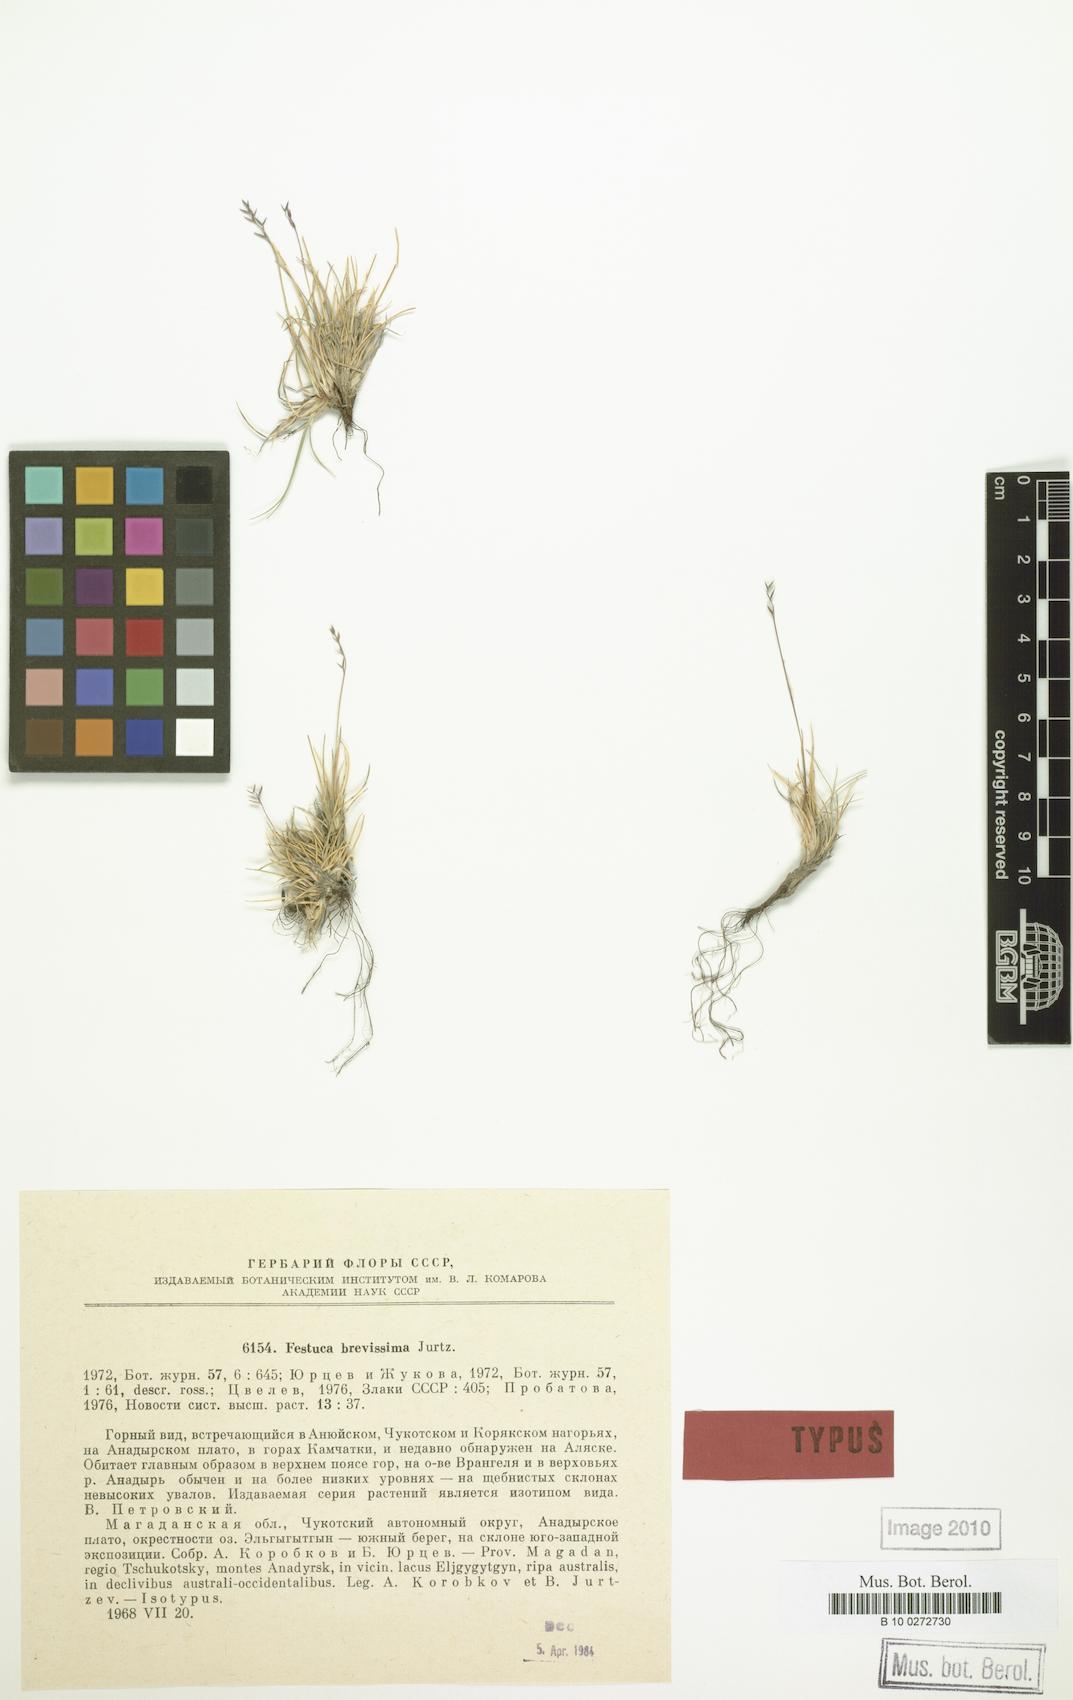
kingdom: Plantae
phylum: Tracheophyta
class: Liliopsida
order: Poales
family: Poaceae
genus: Festuca
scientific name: Festuca brevissima
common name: Alaska fescue
